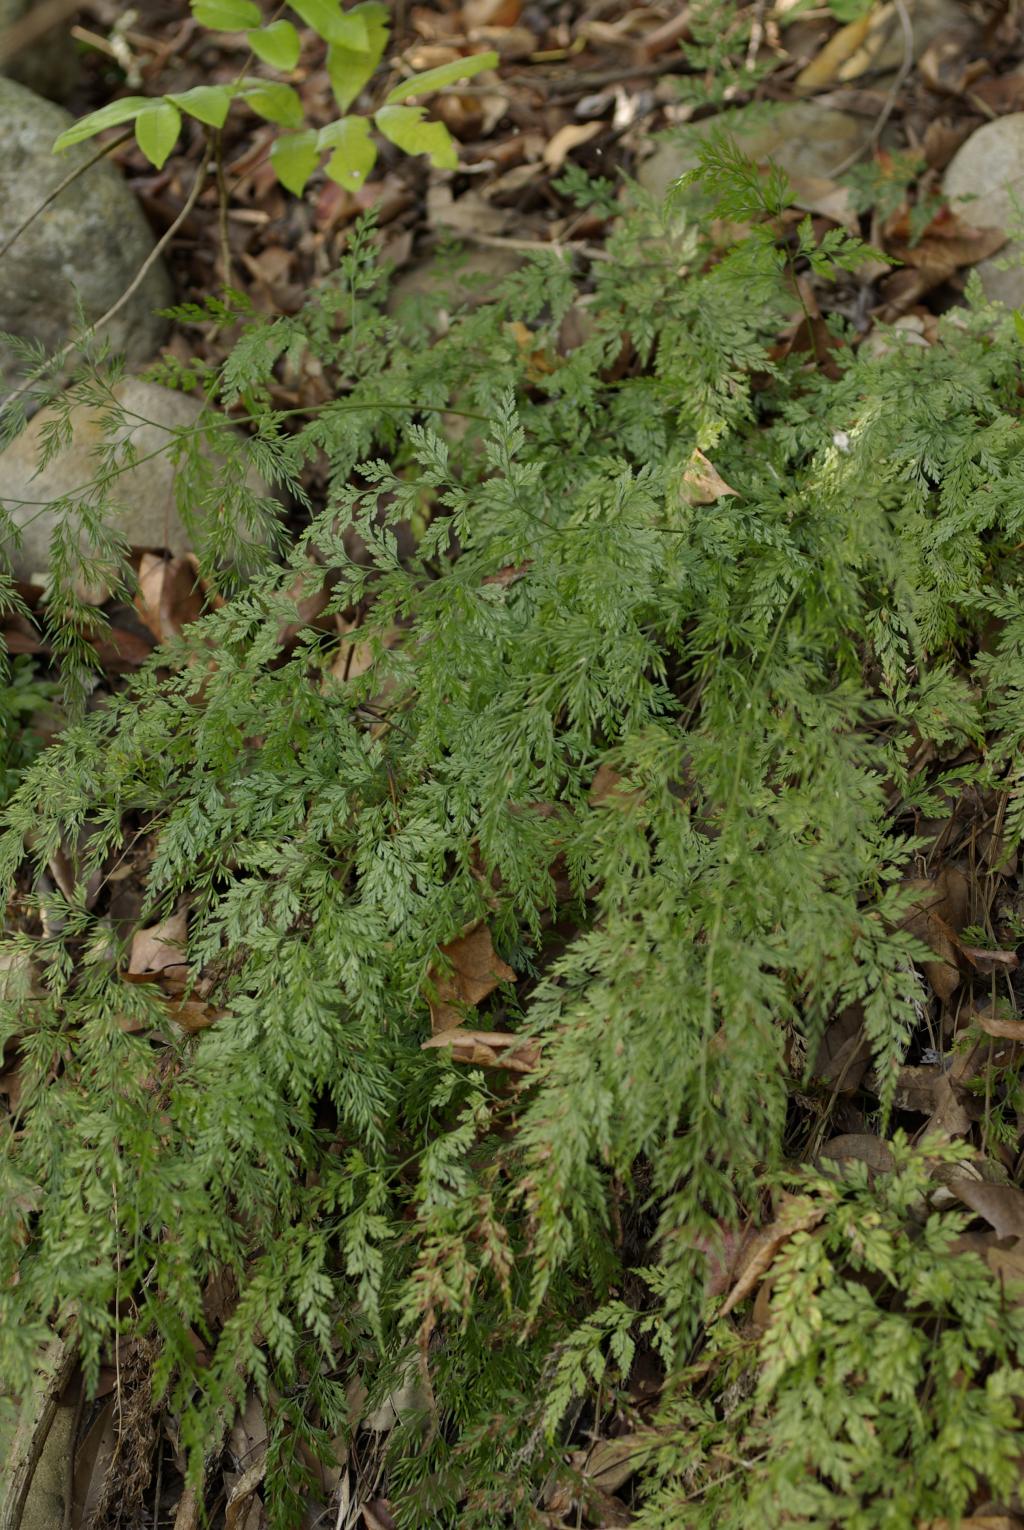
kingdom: Plantae
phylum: Tracheophyta
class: Polypodiopsida
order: Polypodiales
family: Pteridaceae
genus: Onychium
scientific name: Onychium japonicum
